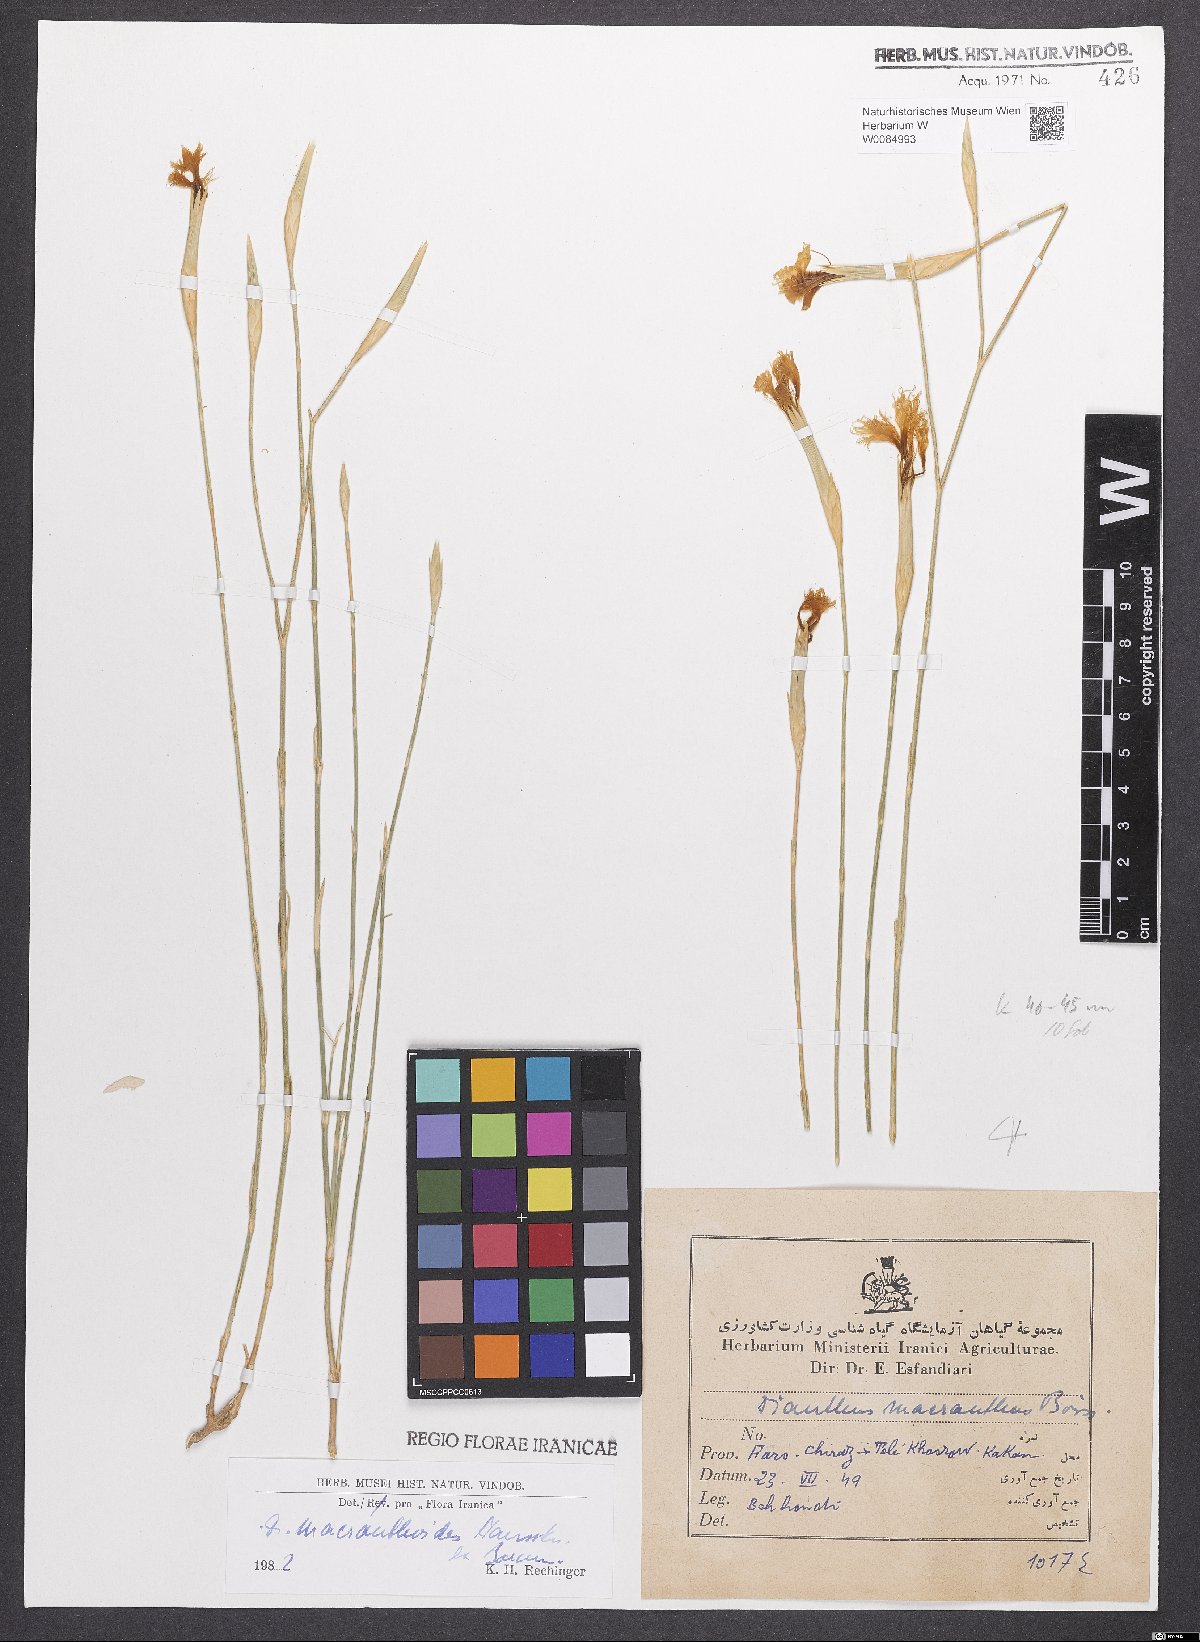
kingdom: Plantae
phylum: Tracheophyta
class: Magnoliopsida
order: Caryophyllales
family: Caryophyllaceae
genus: Dianthus
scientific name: Dianthus macranthoides
